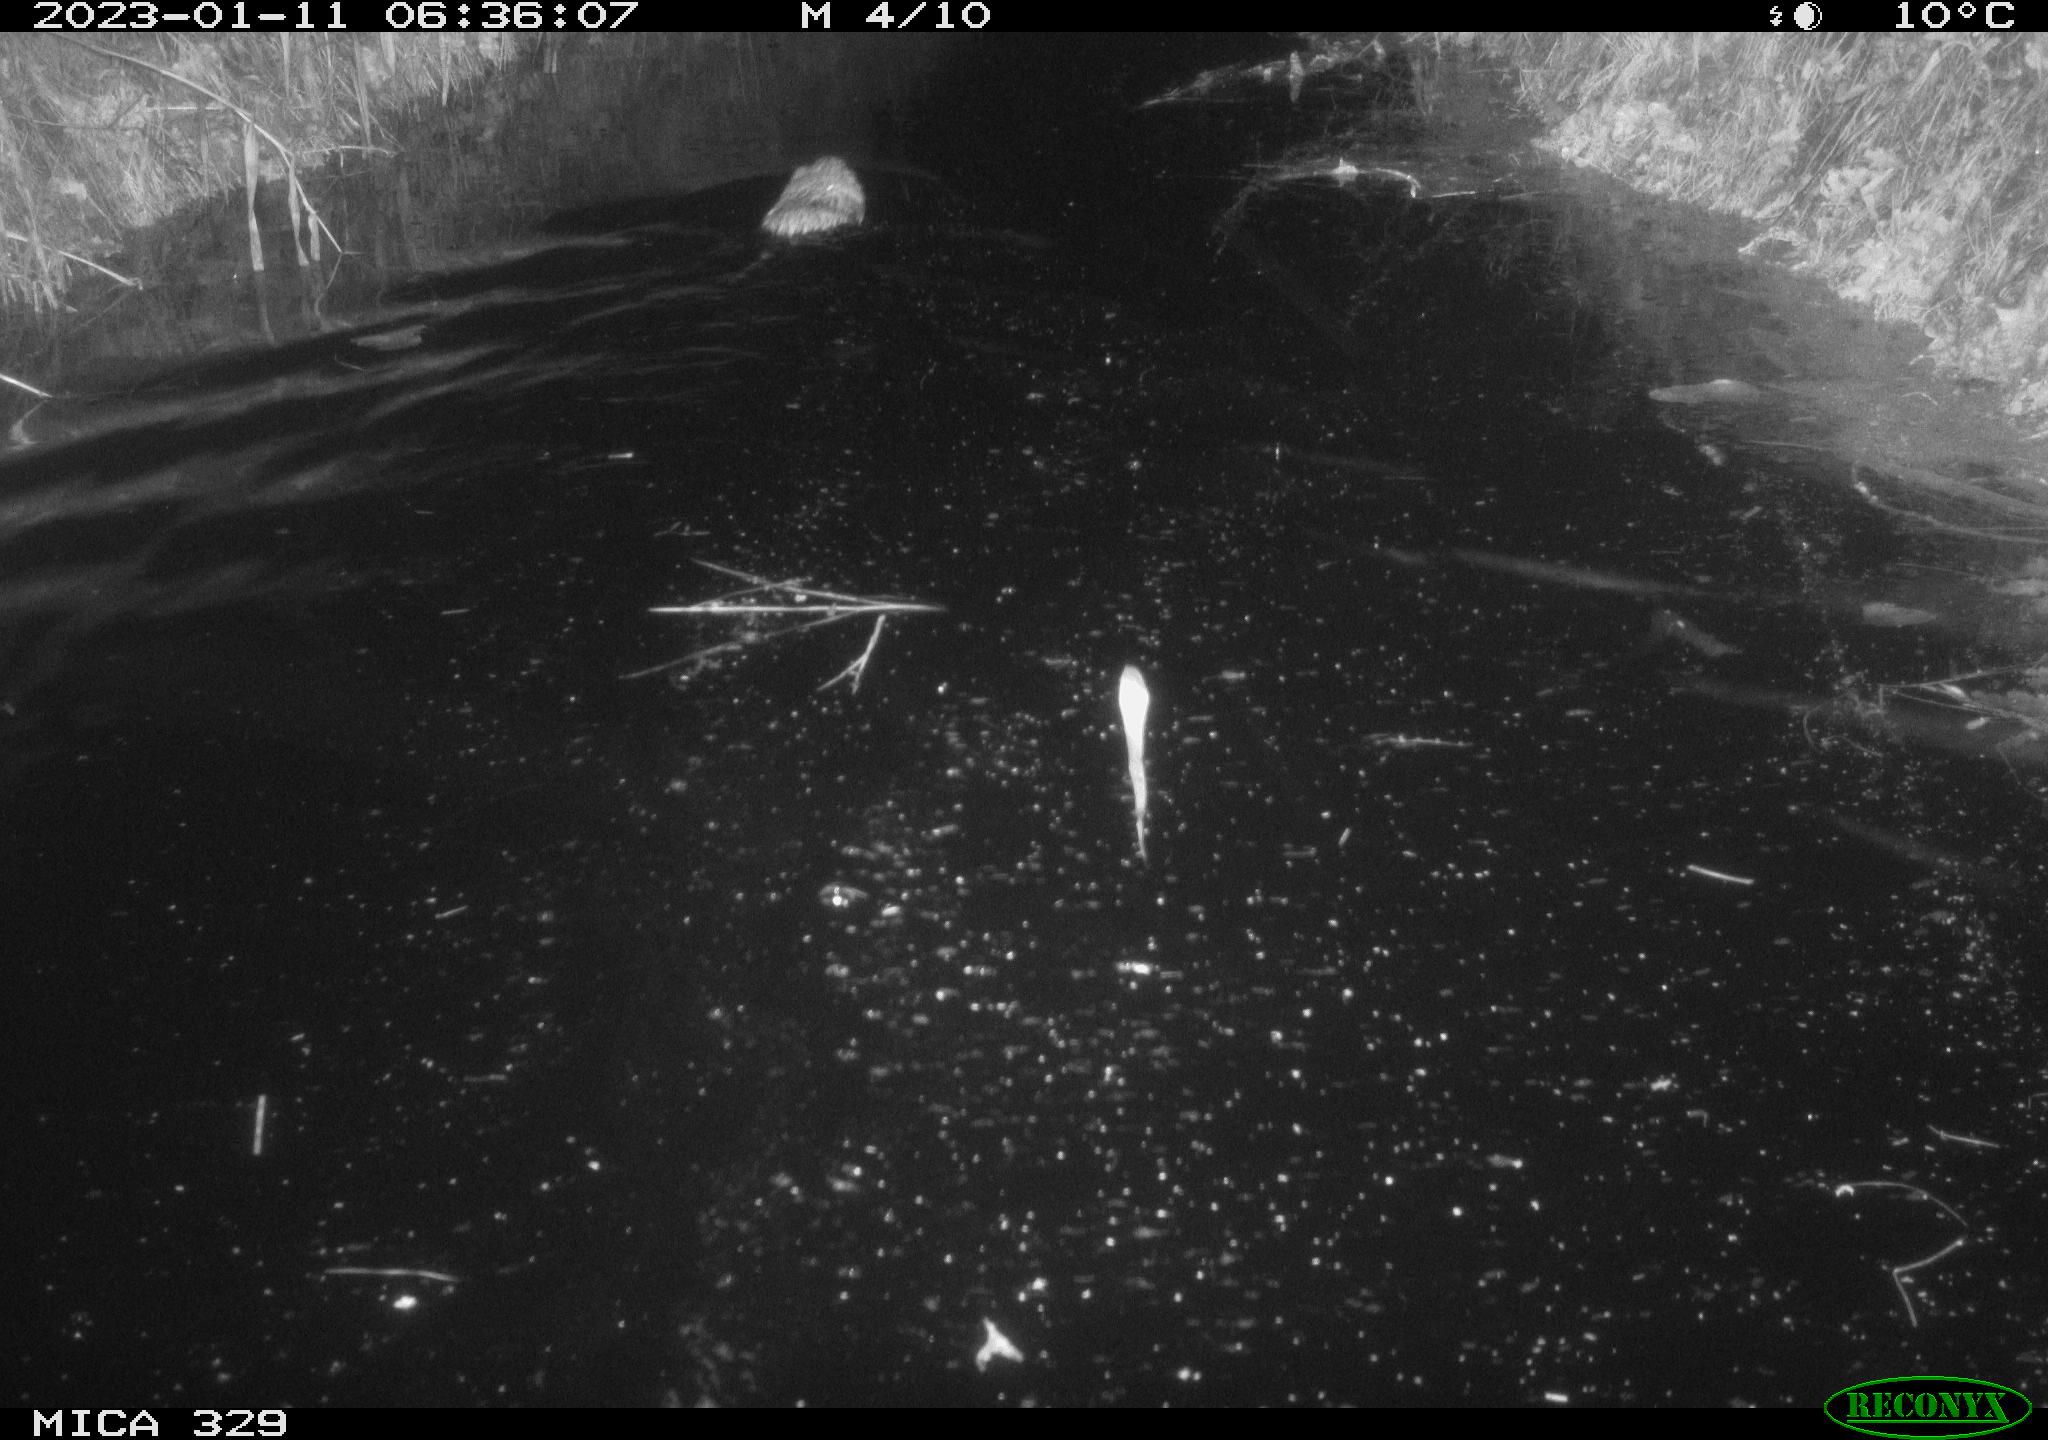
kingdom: Animalia
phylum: Chordata
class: Mammalia
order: Rodentia
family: Cricetidae
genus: Ondatra
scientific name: Ondatra zibethicus
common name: Muskrat
